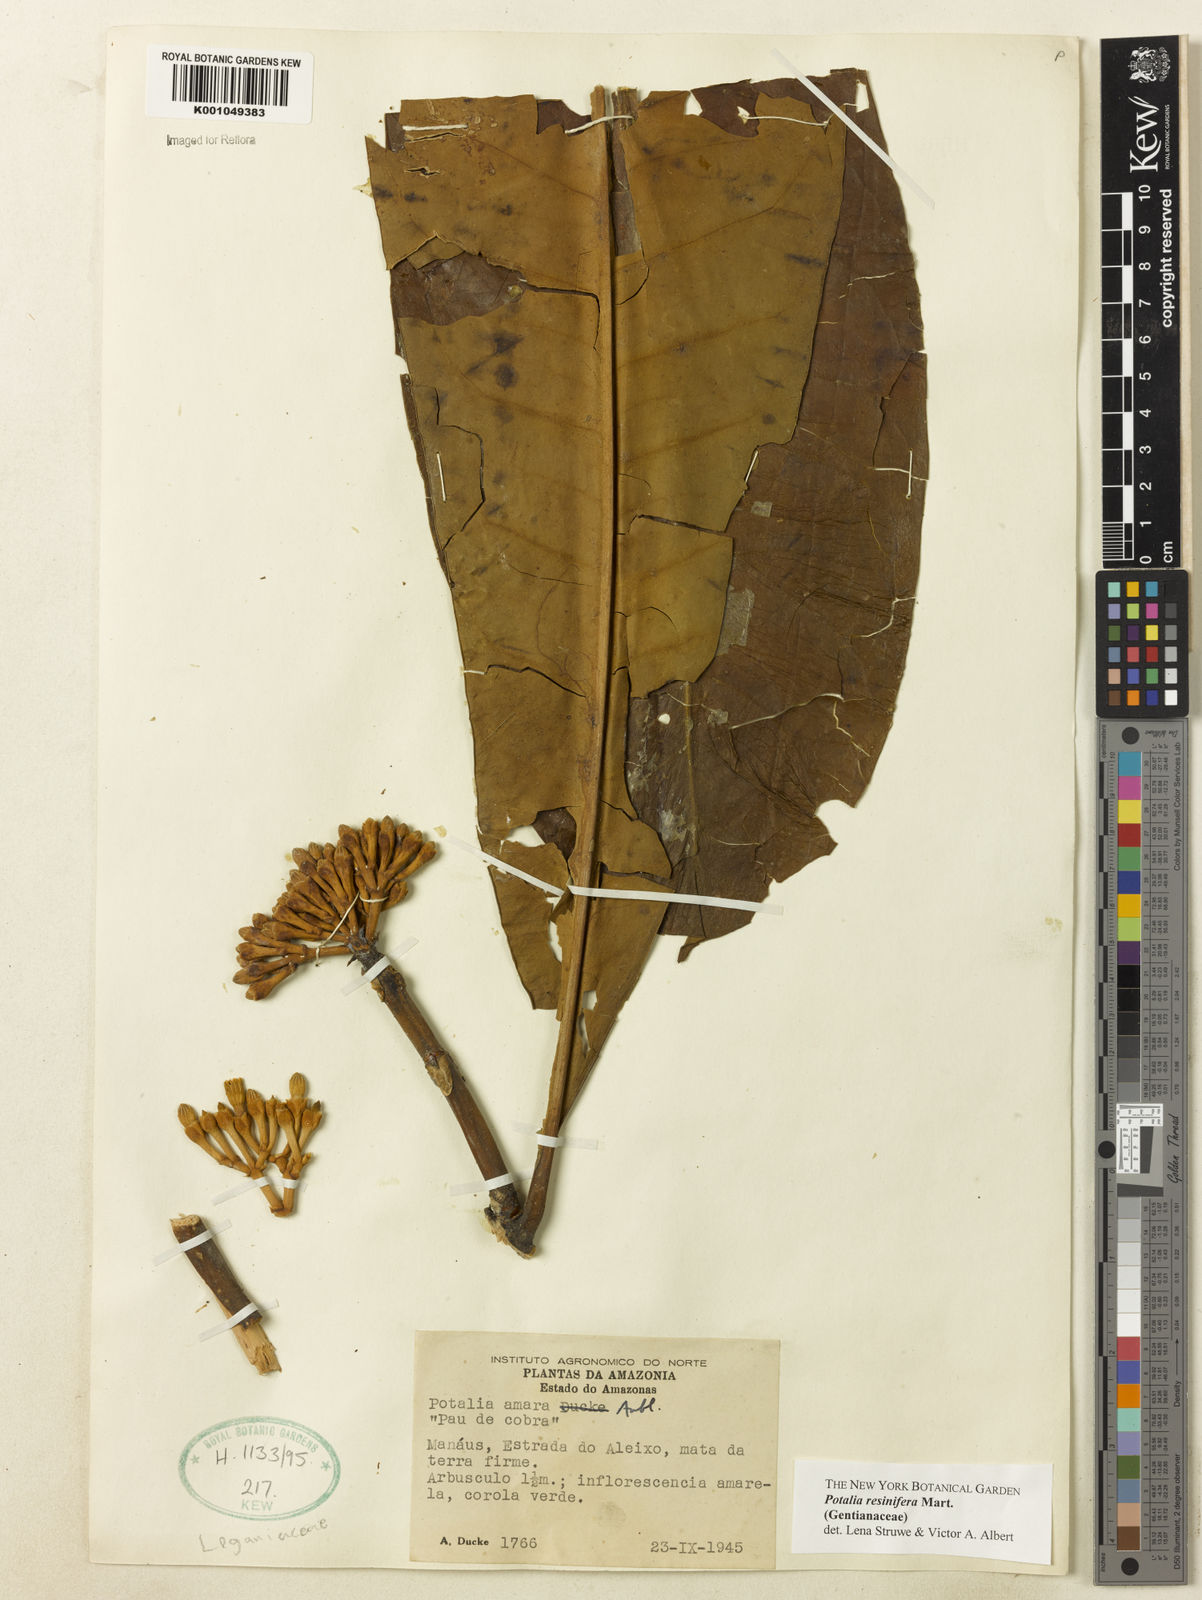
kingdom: Plantae
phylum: Tracheophyta
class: Magnoliopsida
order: Gentianales
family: Gentianaceae
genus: Potalia
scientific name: Potalia resinifera
